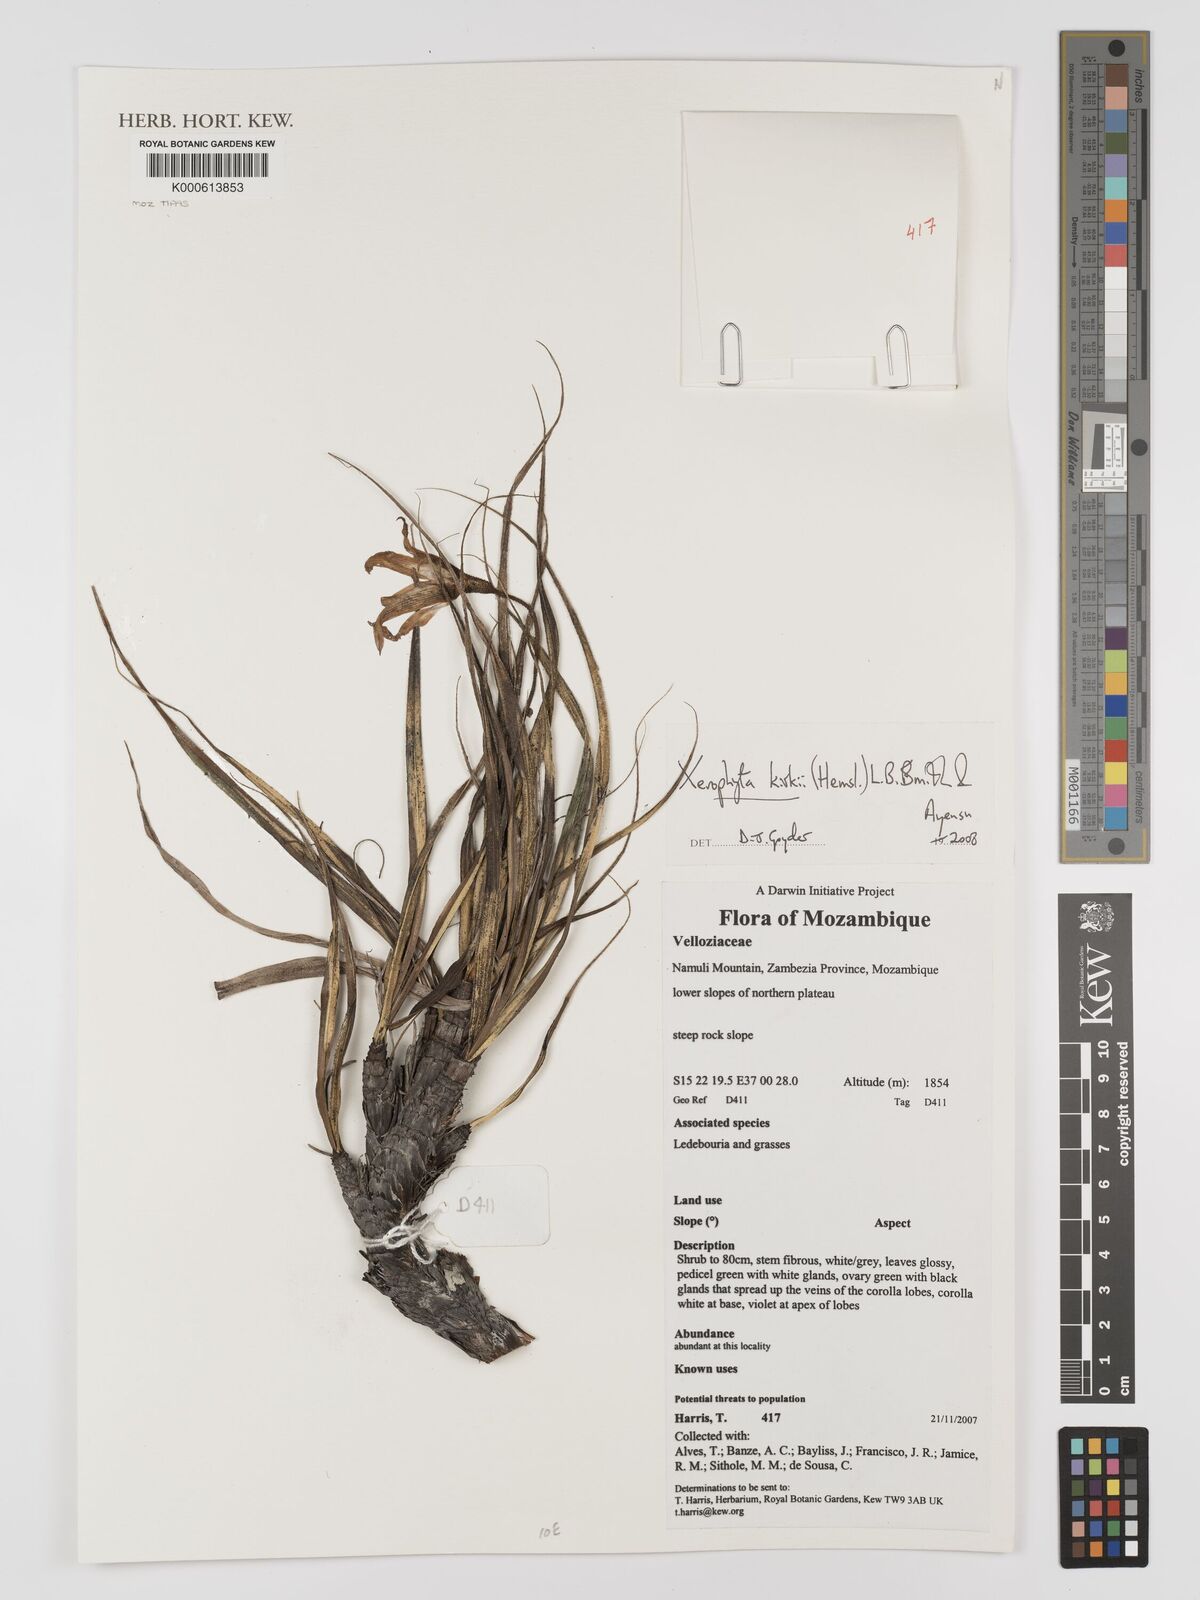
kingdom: Plantae
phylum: Tracheophyta
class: Liliopsida
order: Pandanales
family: Velloziaceae
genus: Xerophyta
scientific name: Xerophyta
